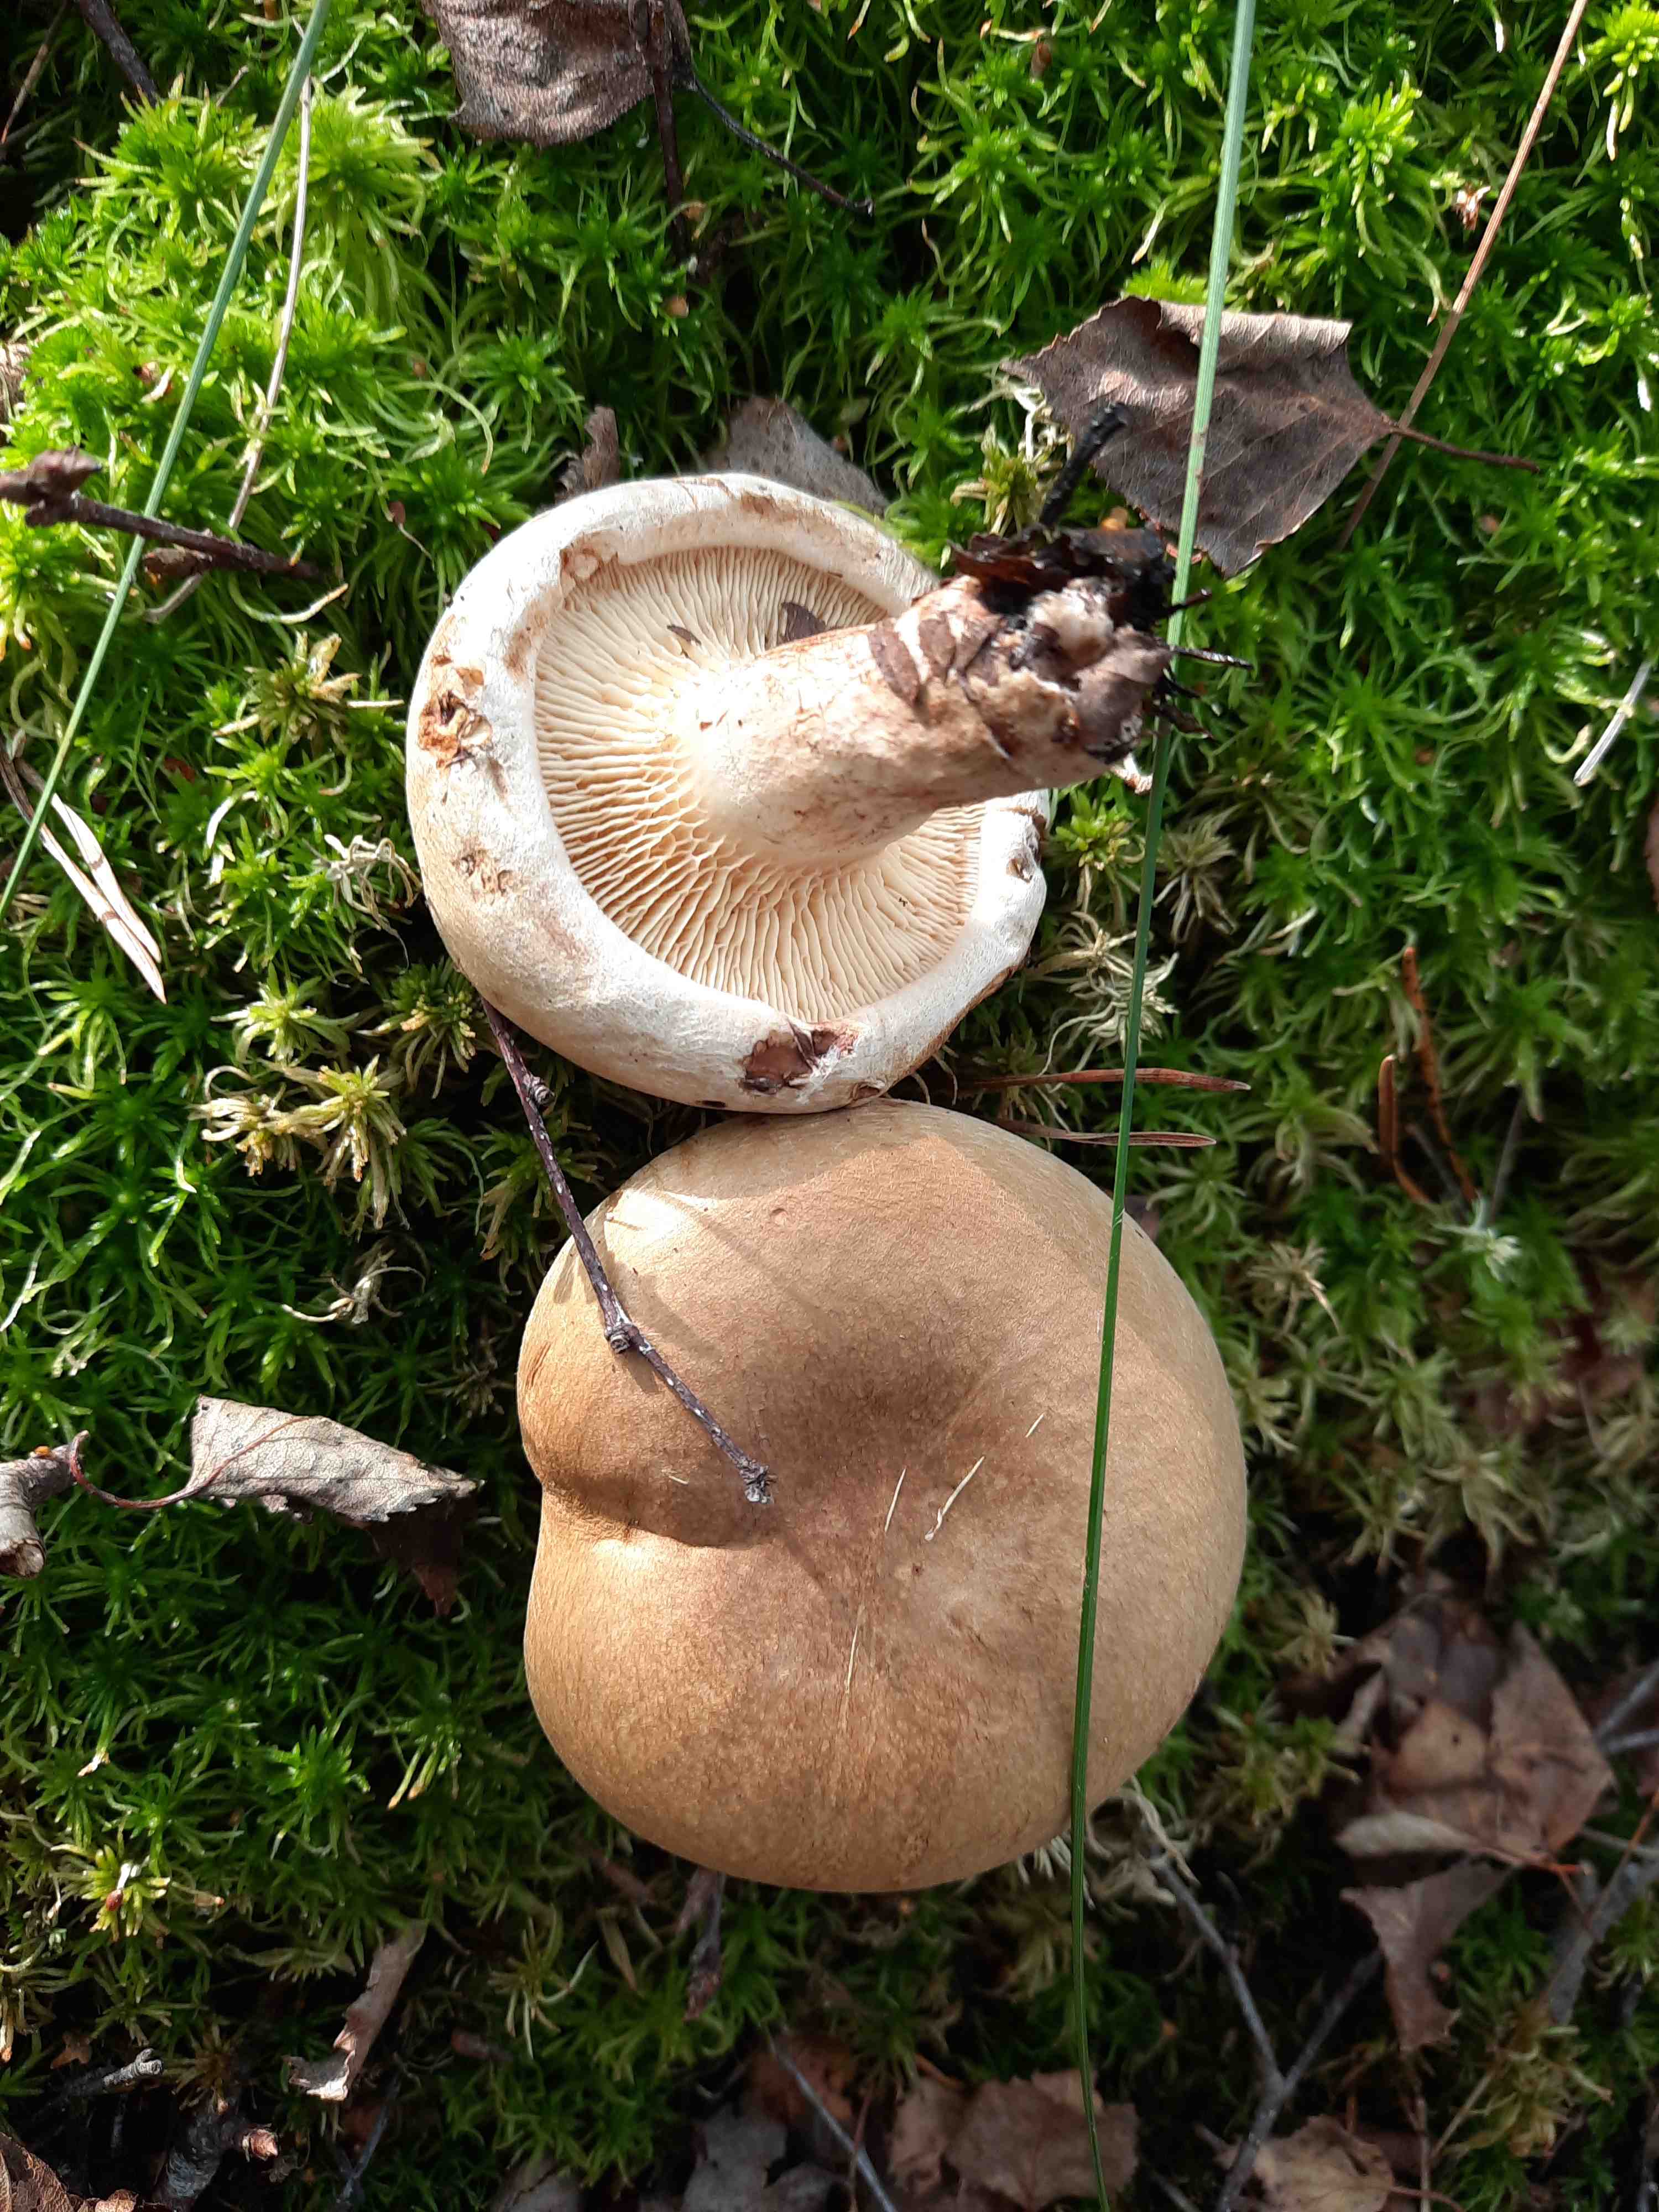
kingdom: Fungi
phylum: Basidiomycota
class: Agaricomycetes
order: Boletales
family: Paxillaceae
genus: Paxillus
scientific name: Paxillus involutus
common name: almindelig netbladhat
